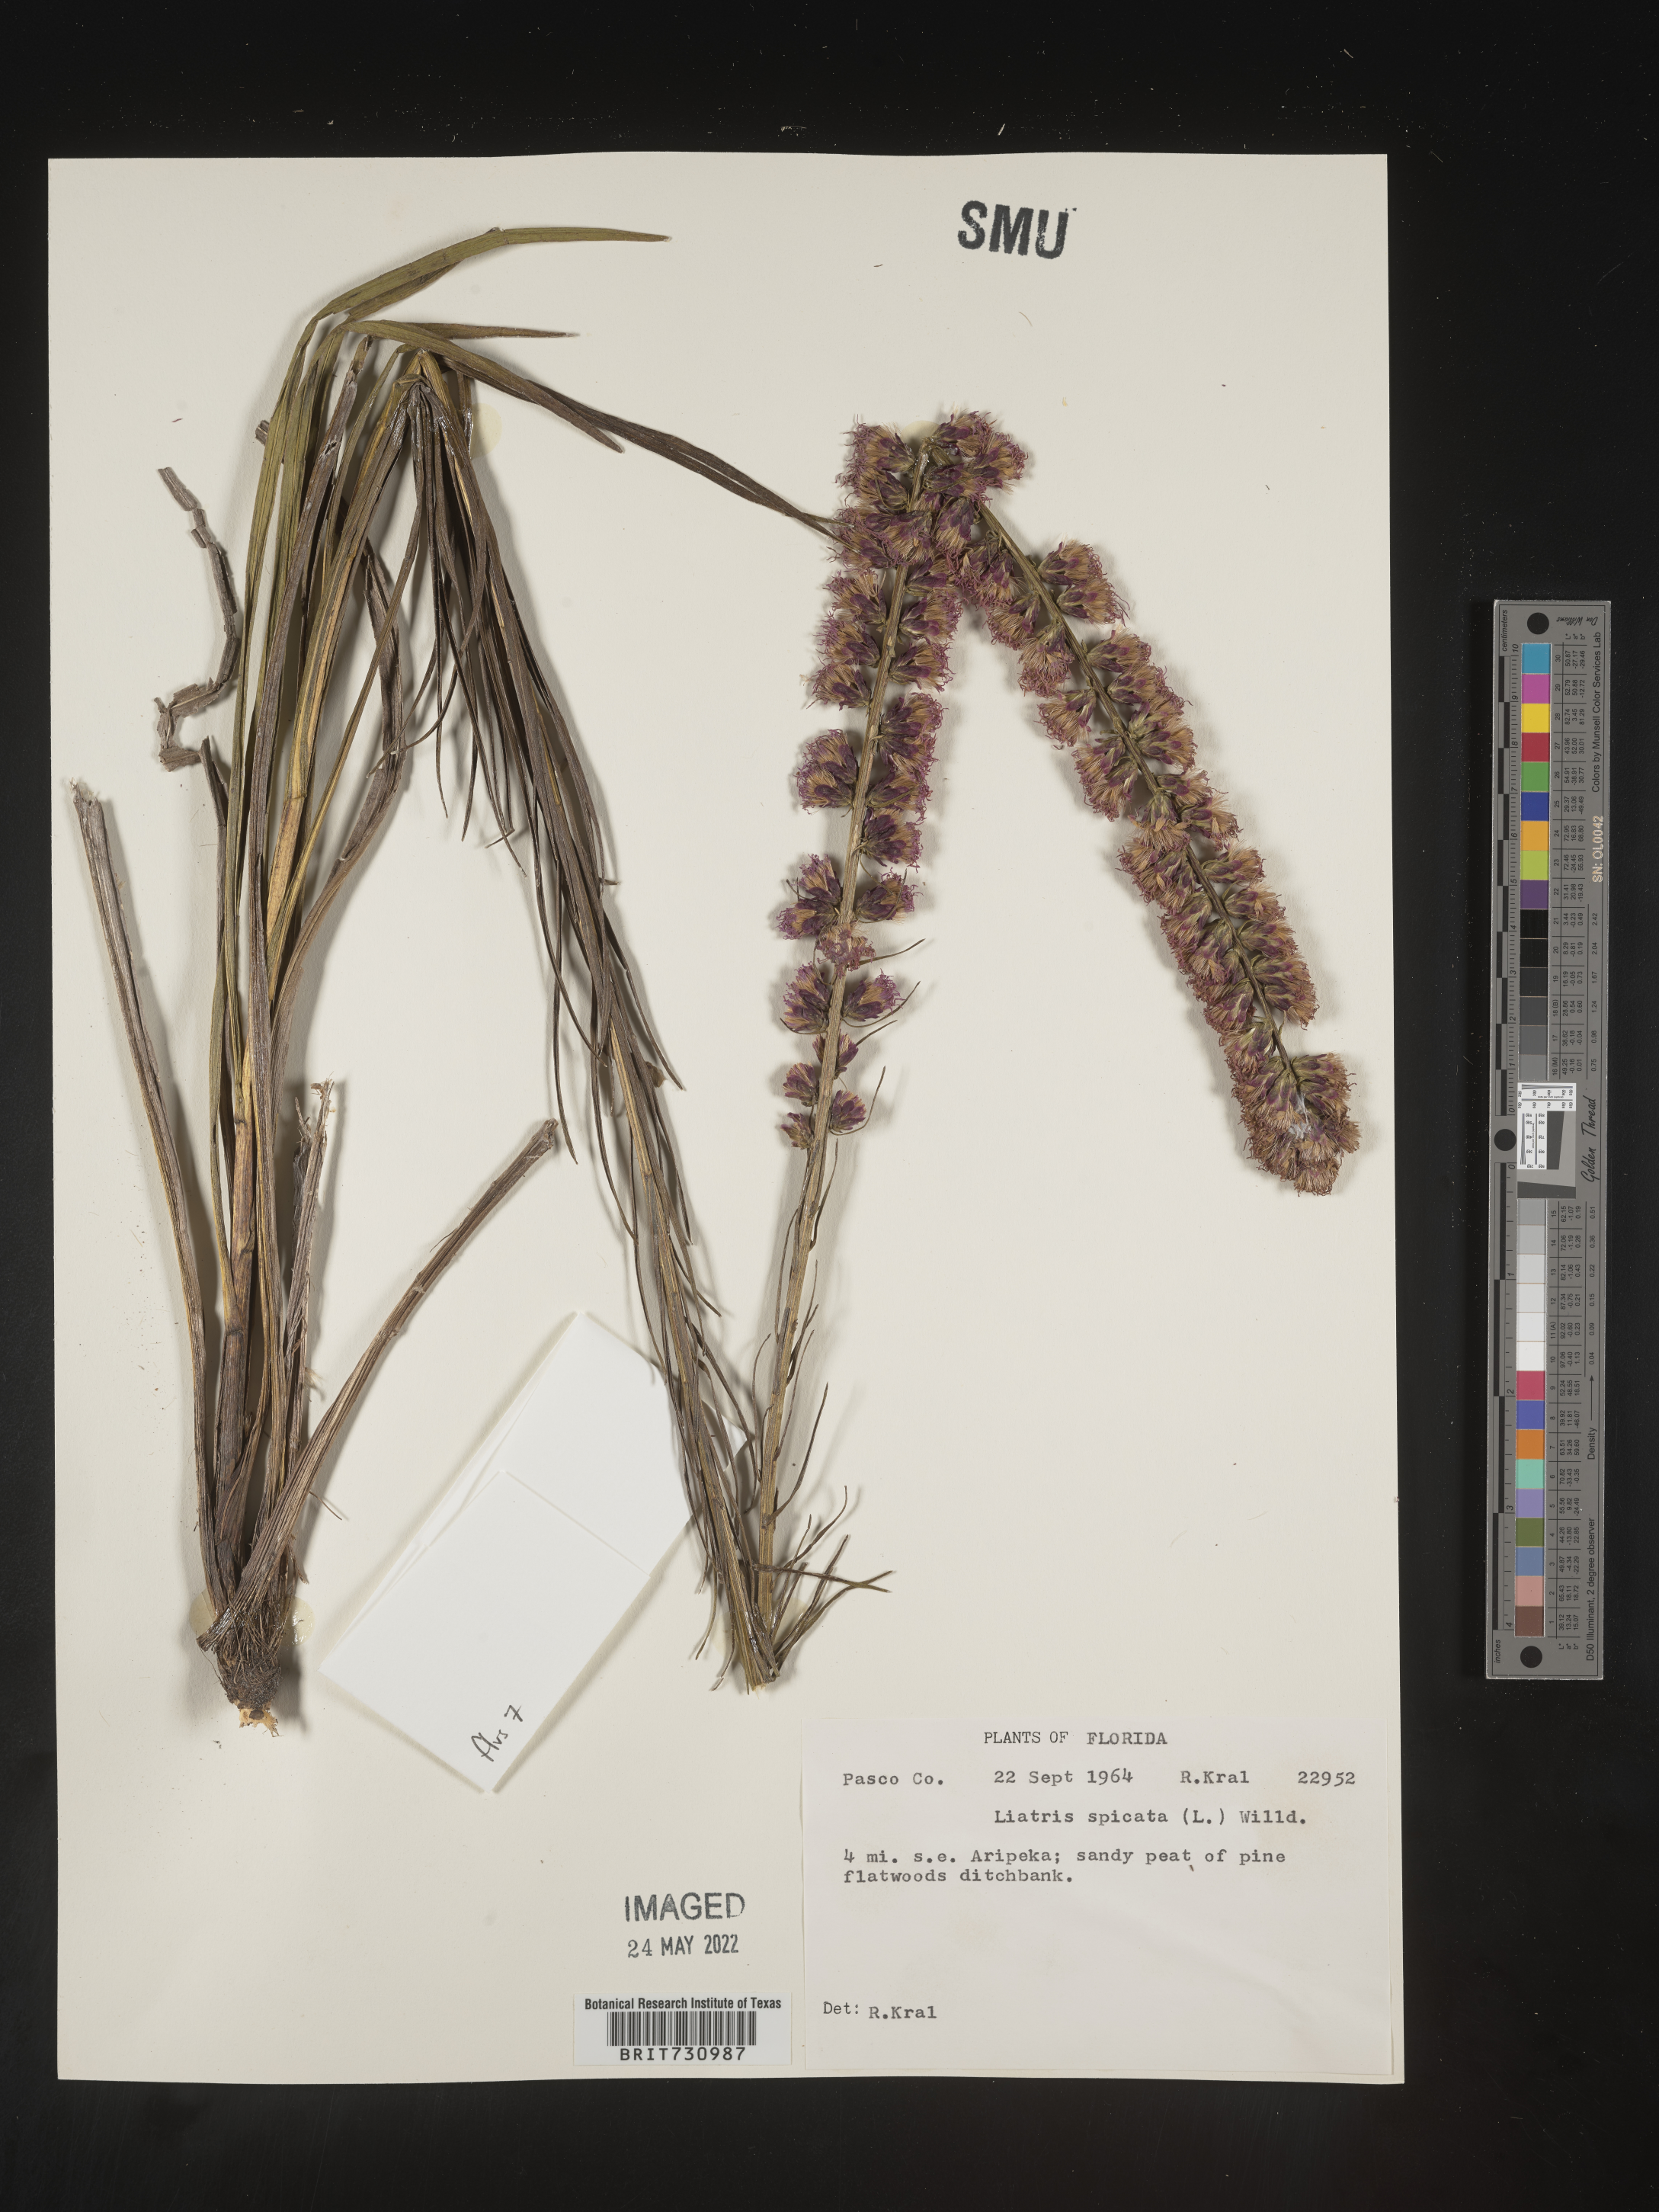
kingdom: Plantae
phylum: Tracheophyta
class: Magnoliopsida
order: Asterales
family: Asteraceae
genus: Liatris
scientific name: Liatris spicata
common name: Florist gayfeather
